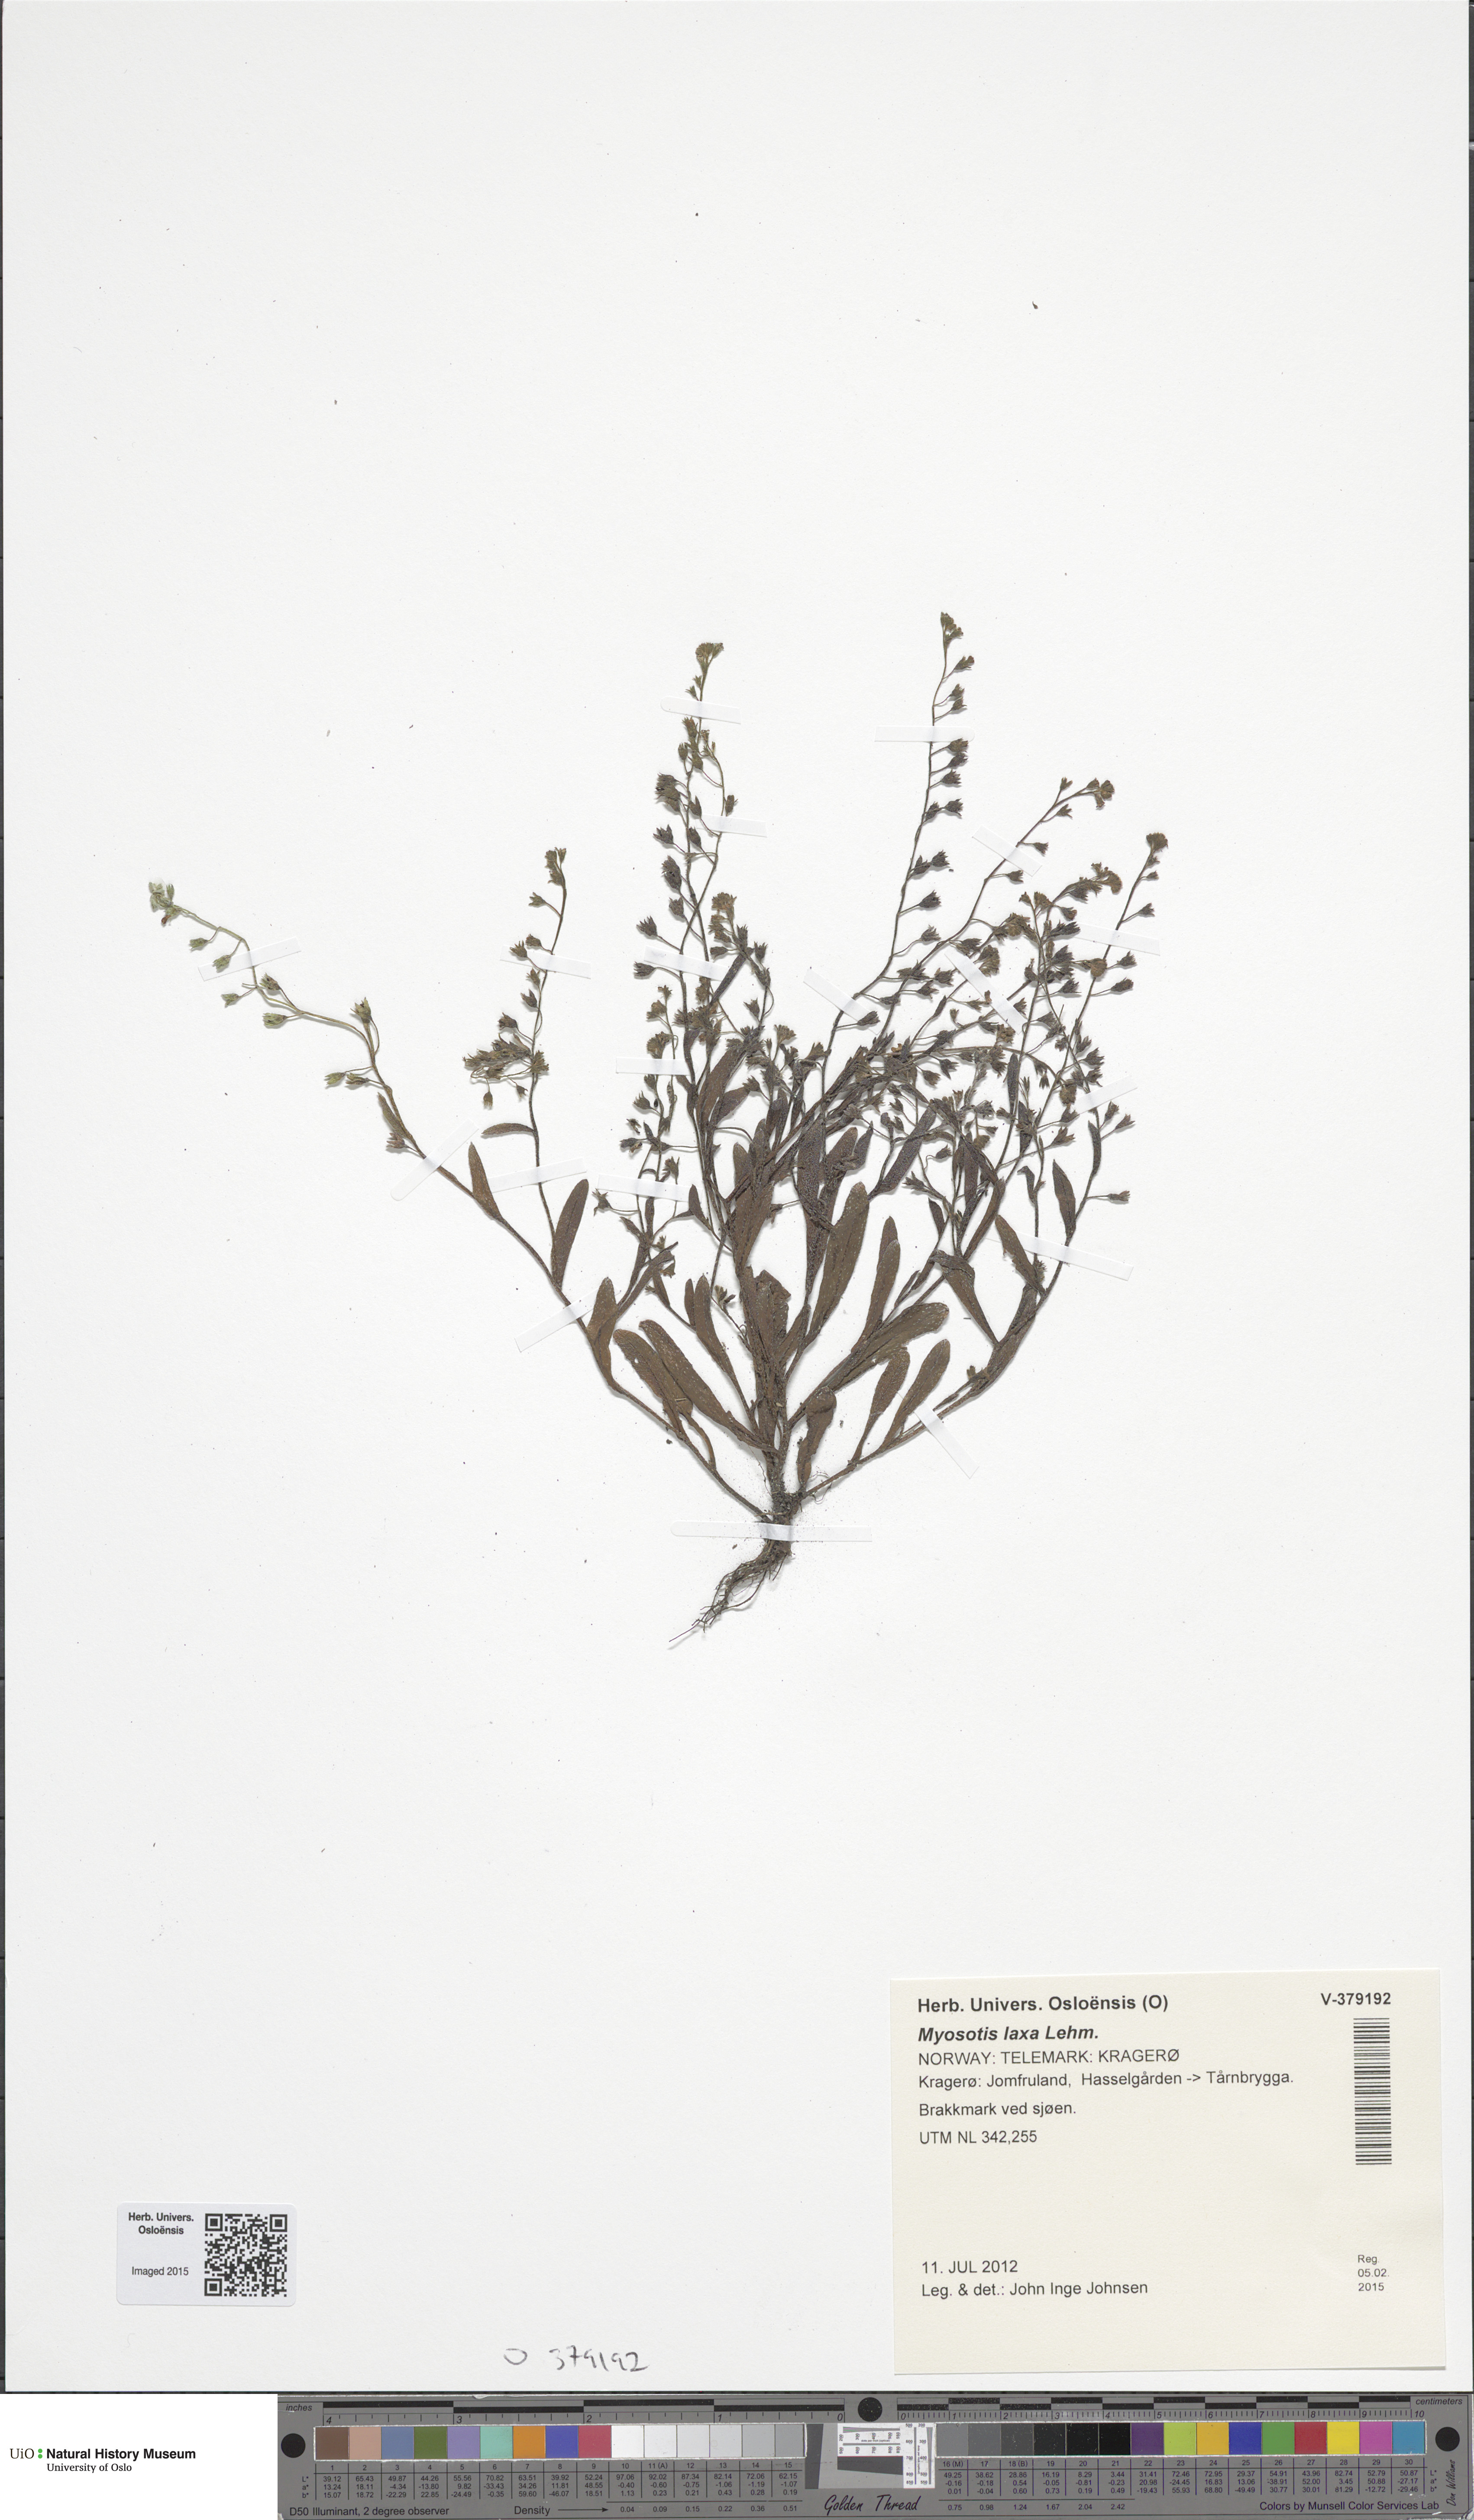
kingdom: Plantae
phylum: Tracheophyta
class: Magnoliopsida
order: Boraginales
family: Boraginaceae
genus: Myosotis
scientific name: Myosotis laxa
